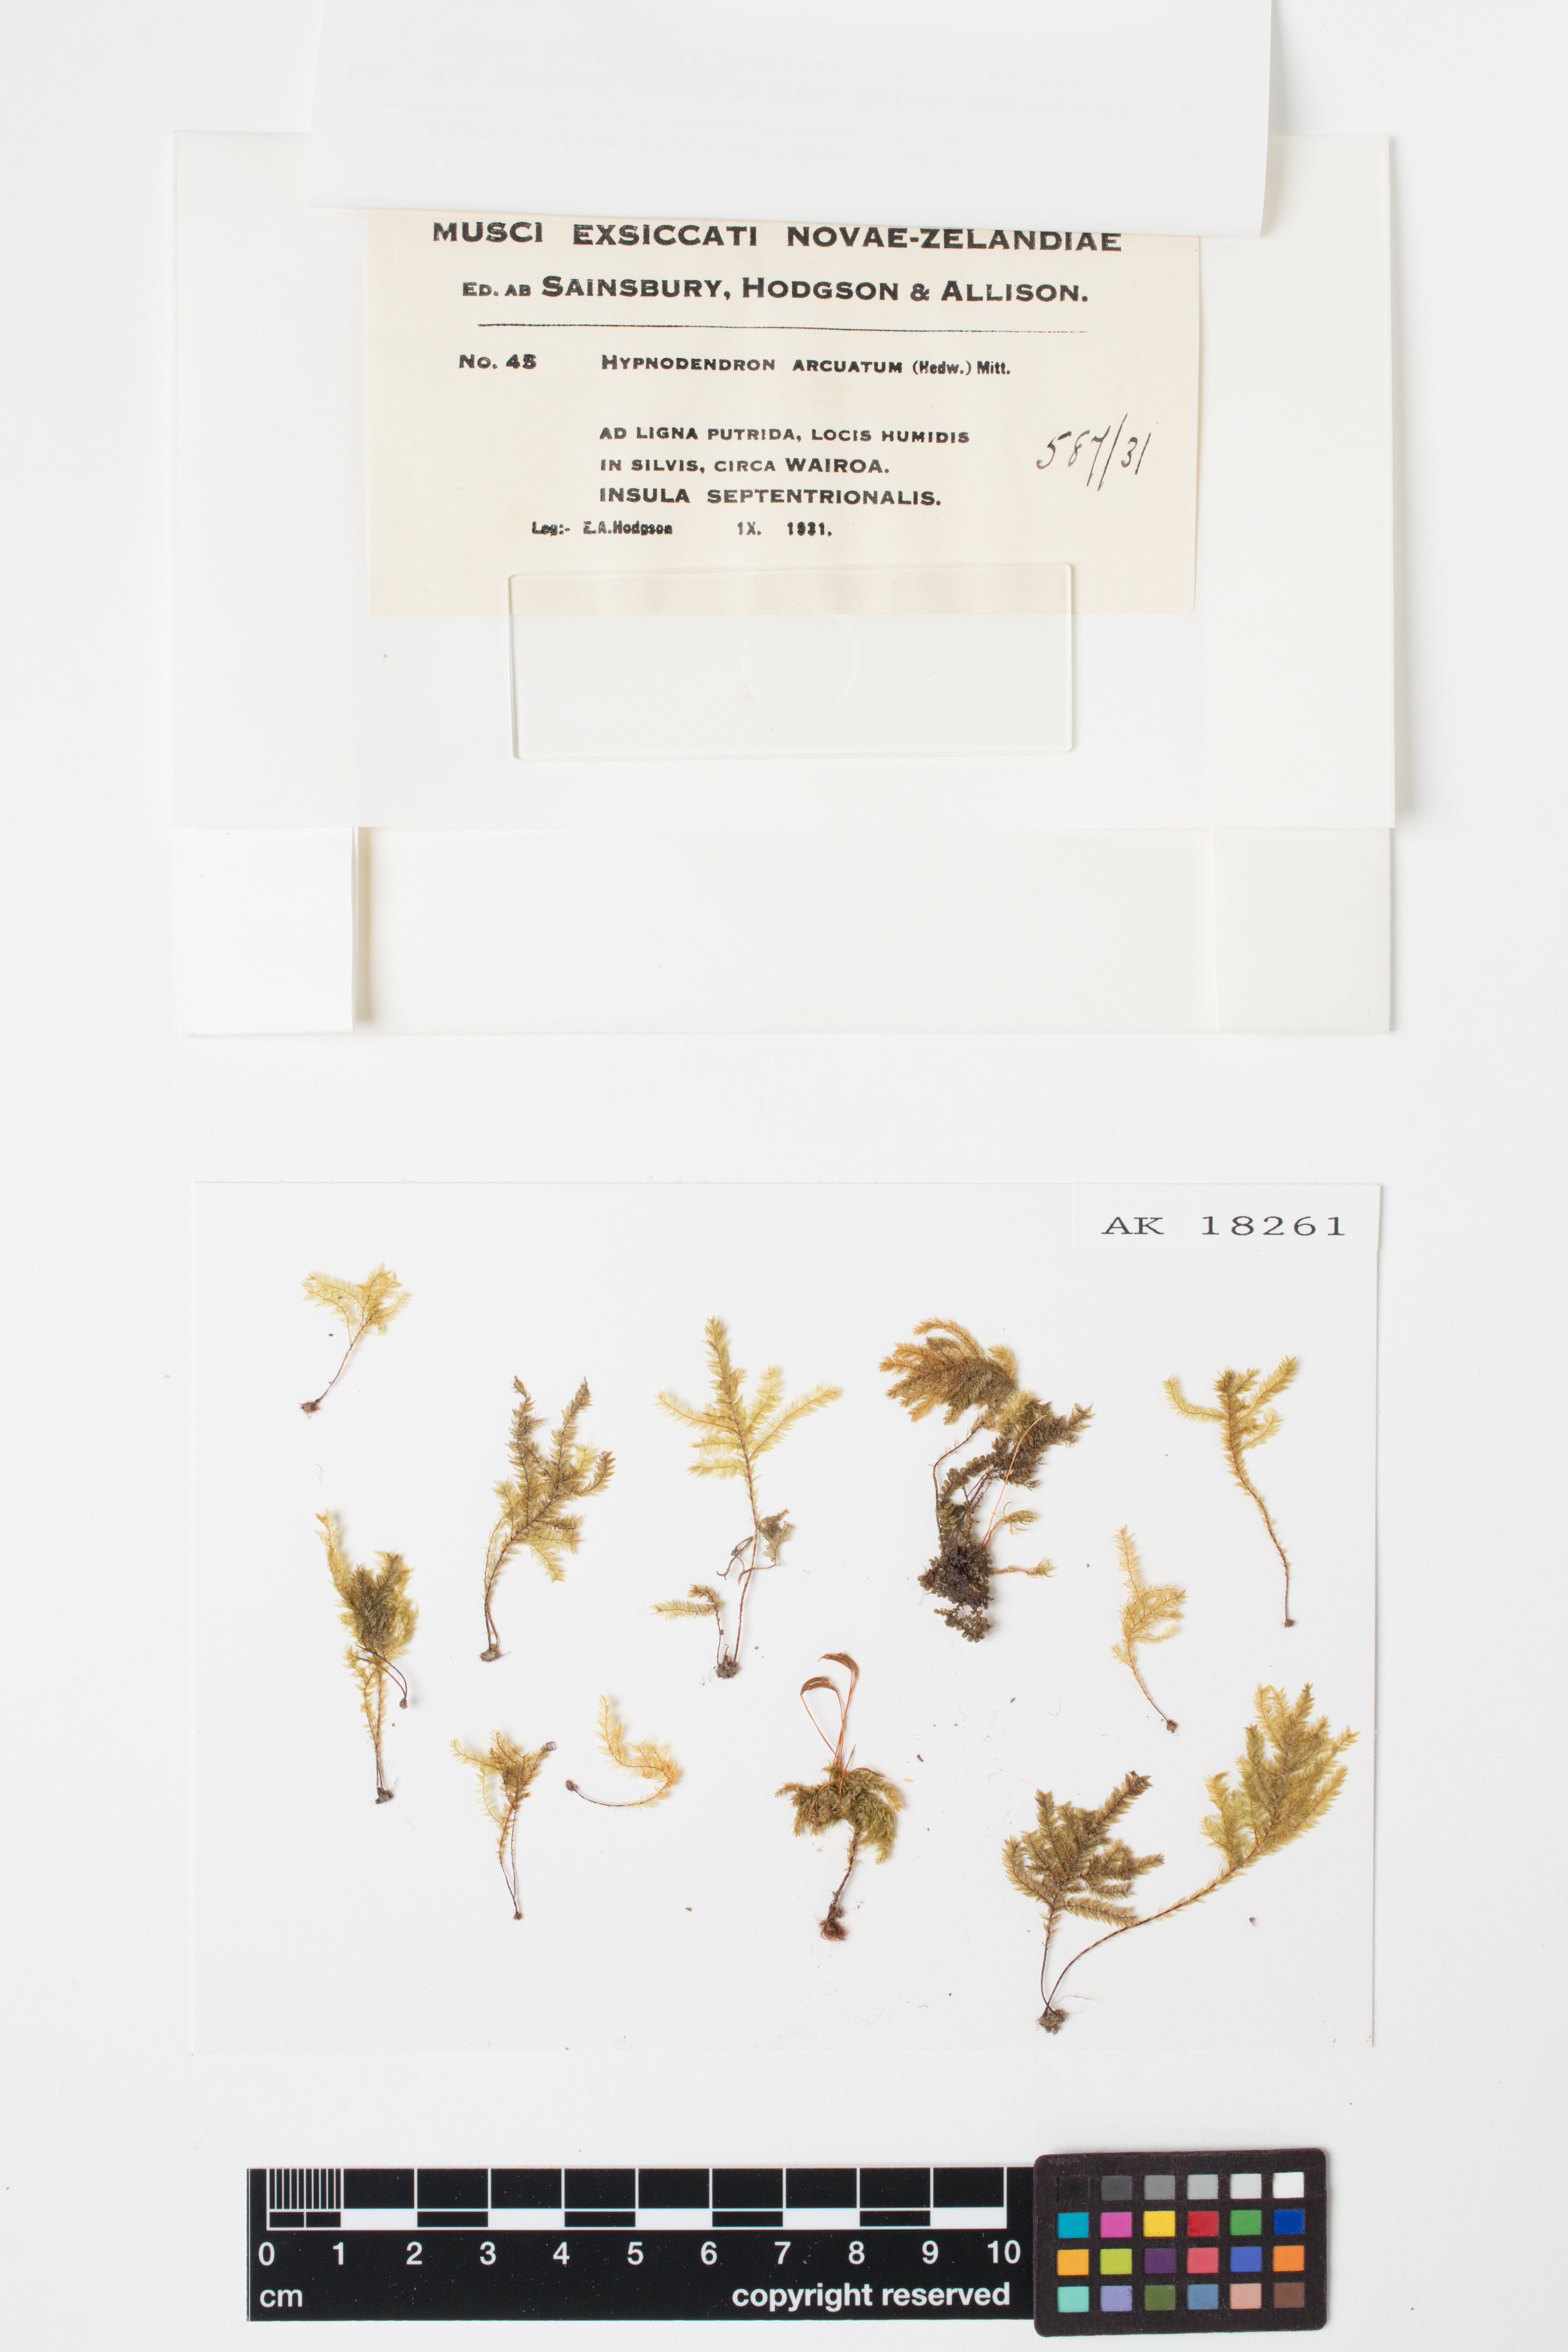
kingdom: Plantae
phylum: Bryophyta
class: Bryopsida
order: Hypnodendrales
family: Spiridentaceae
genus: Hypnodendron
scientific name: Hypnodendron arcuatum
